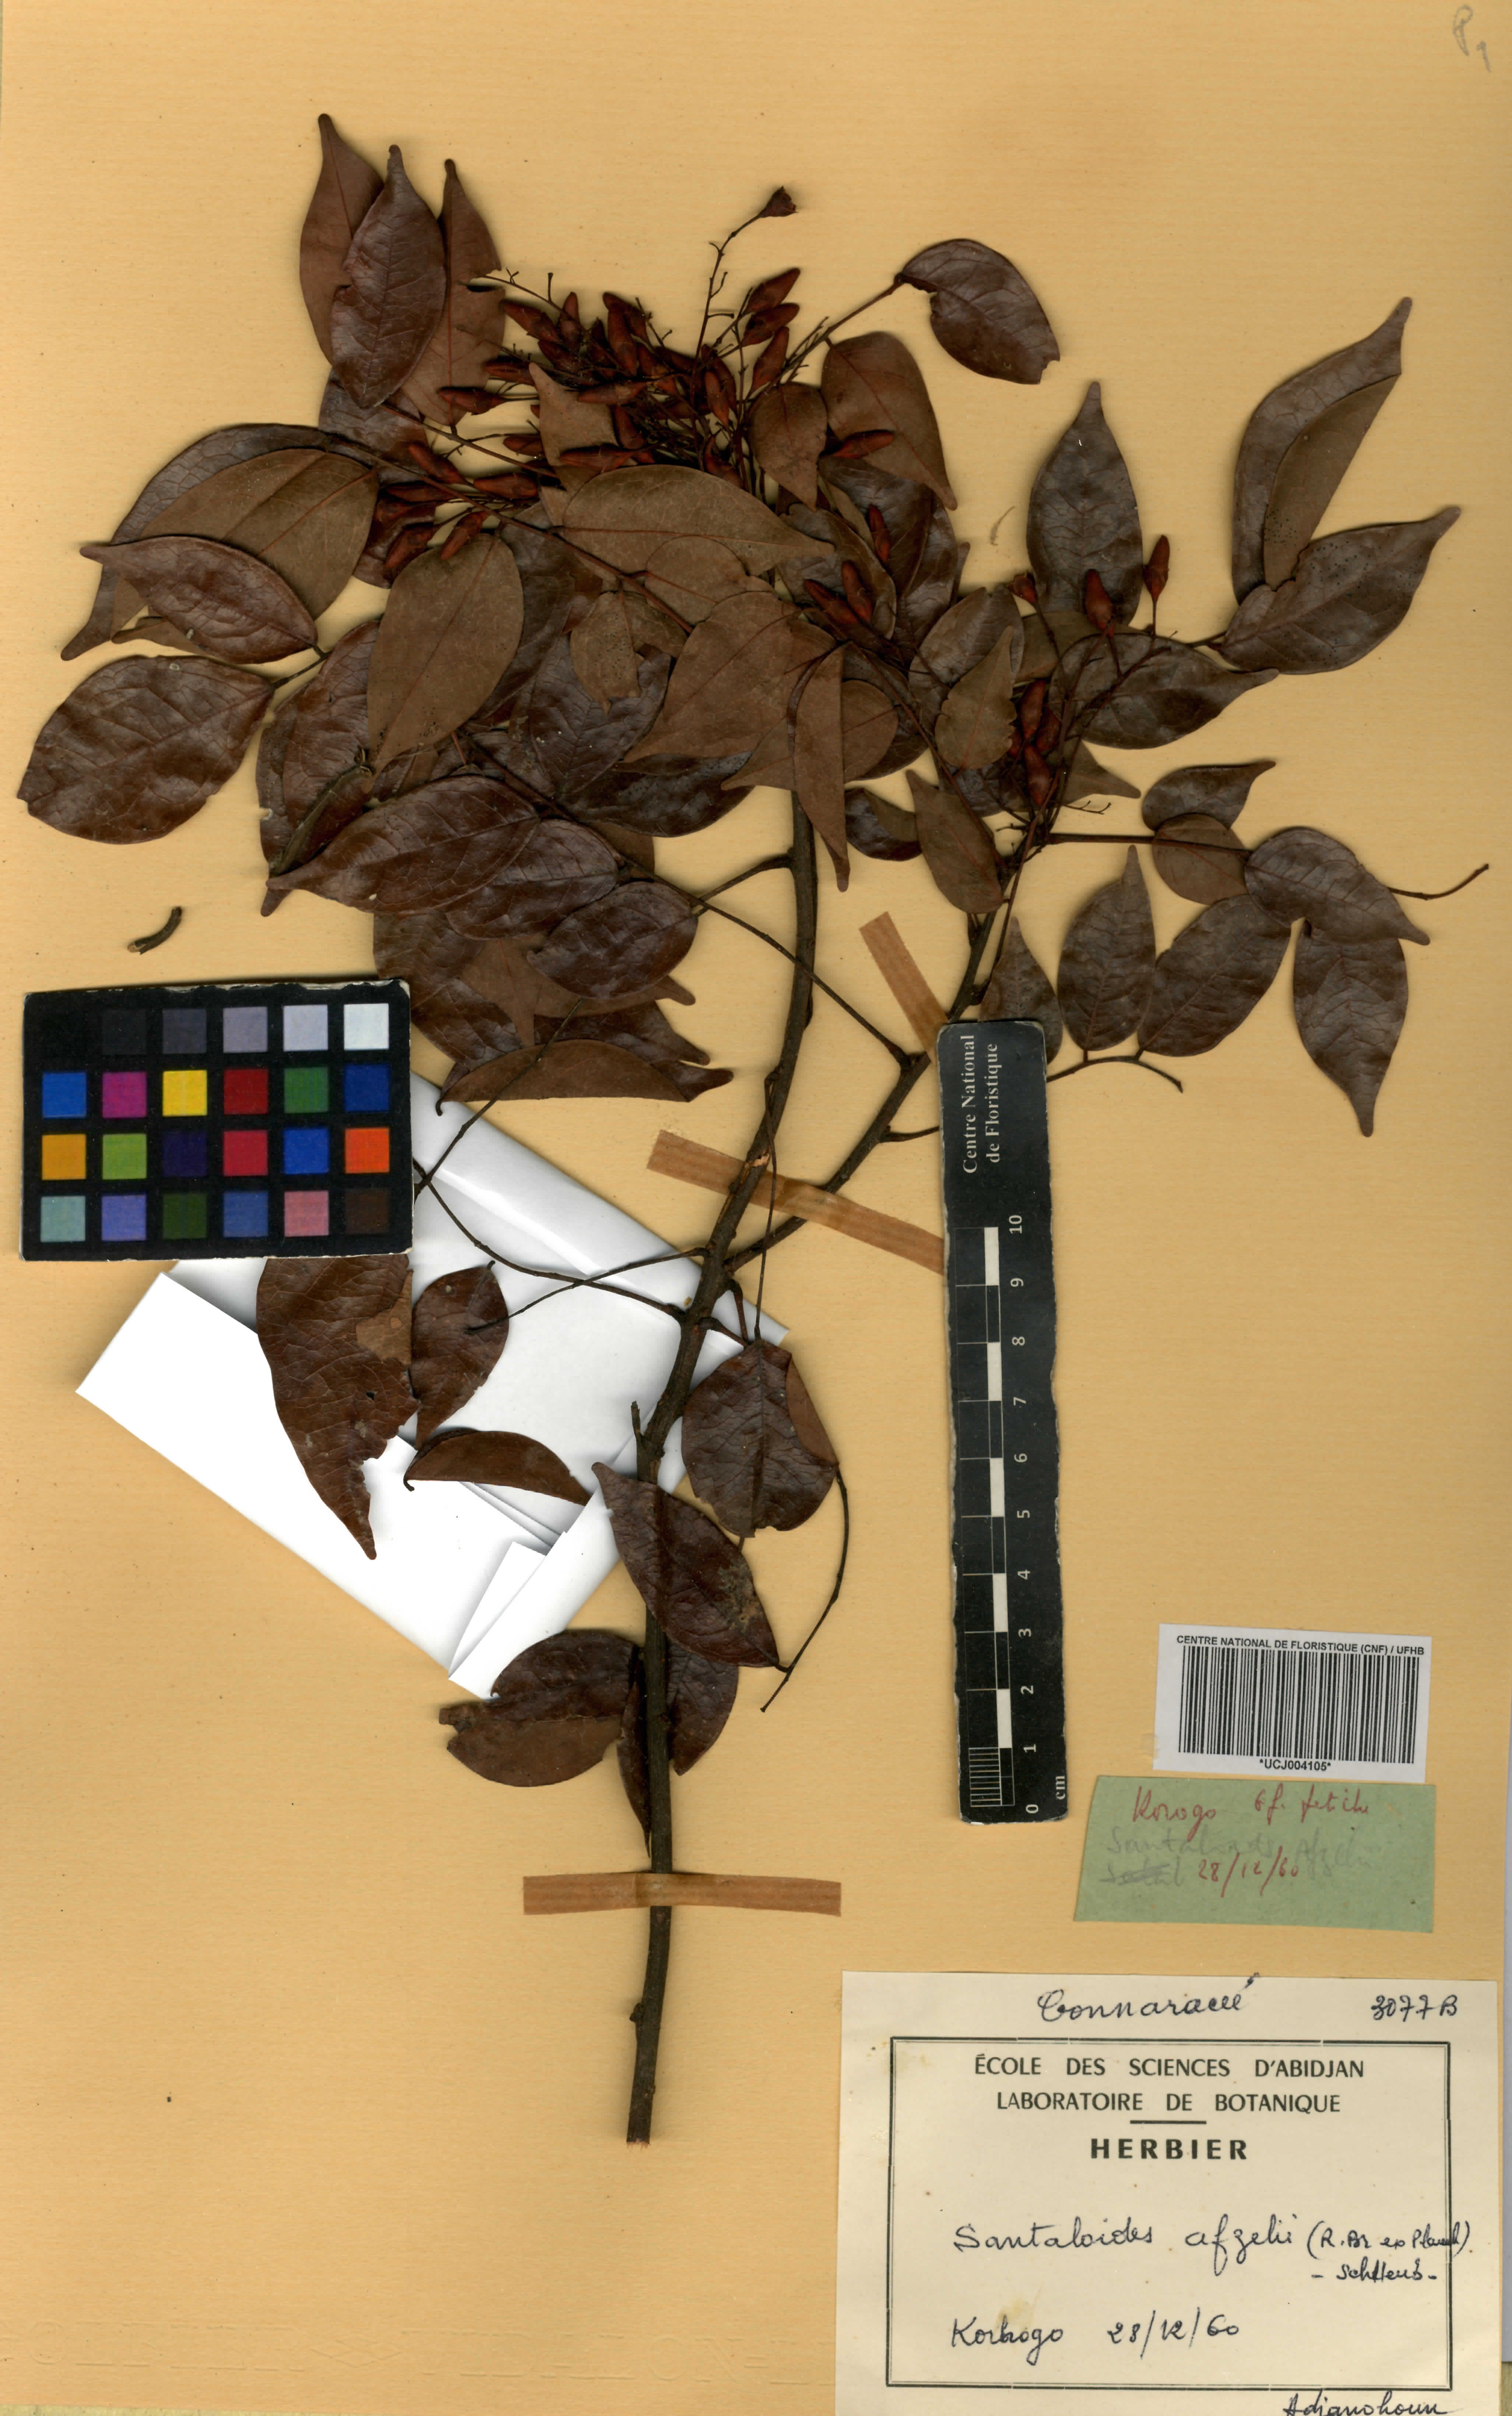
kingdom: Plantae
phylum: Tracheophyta
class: Magnoliopsida
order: Oxalidales
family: Connaraceae
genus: Rourea
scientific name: Rourea minor
